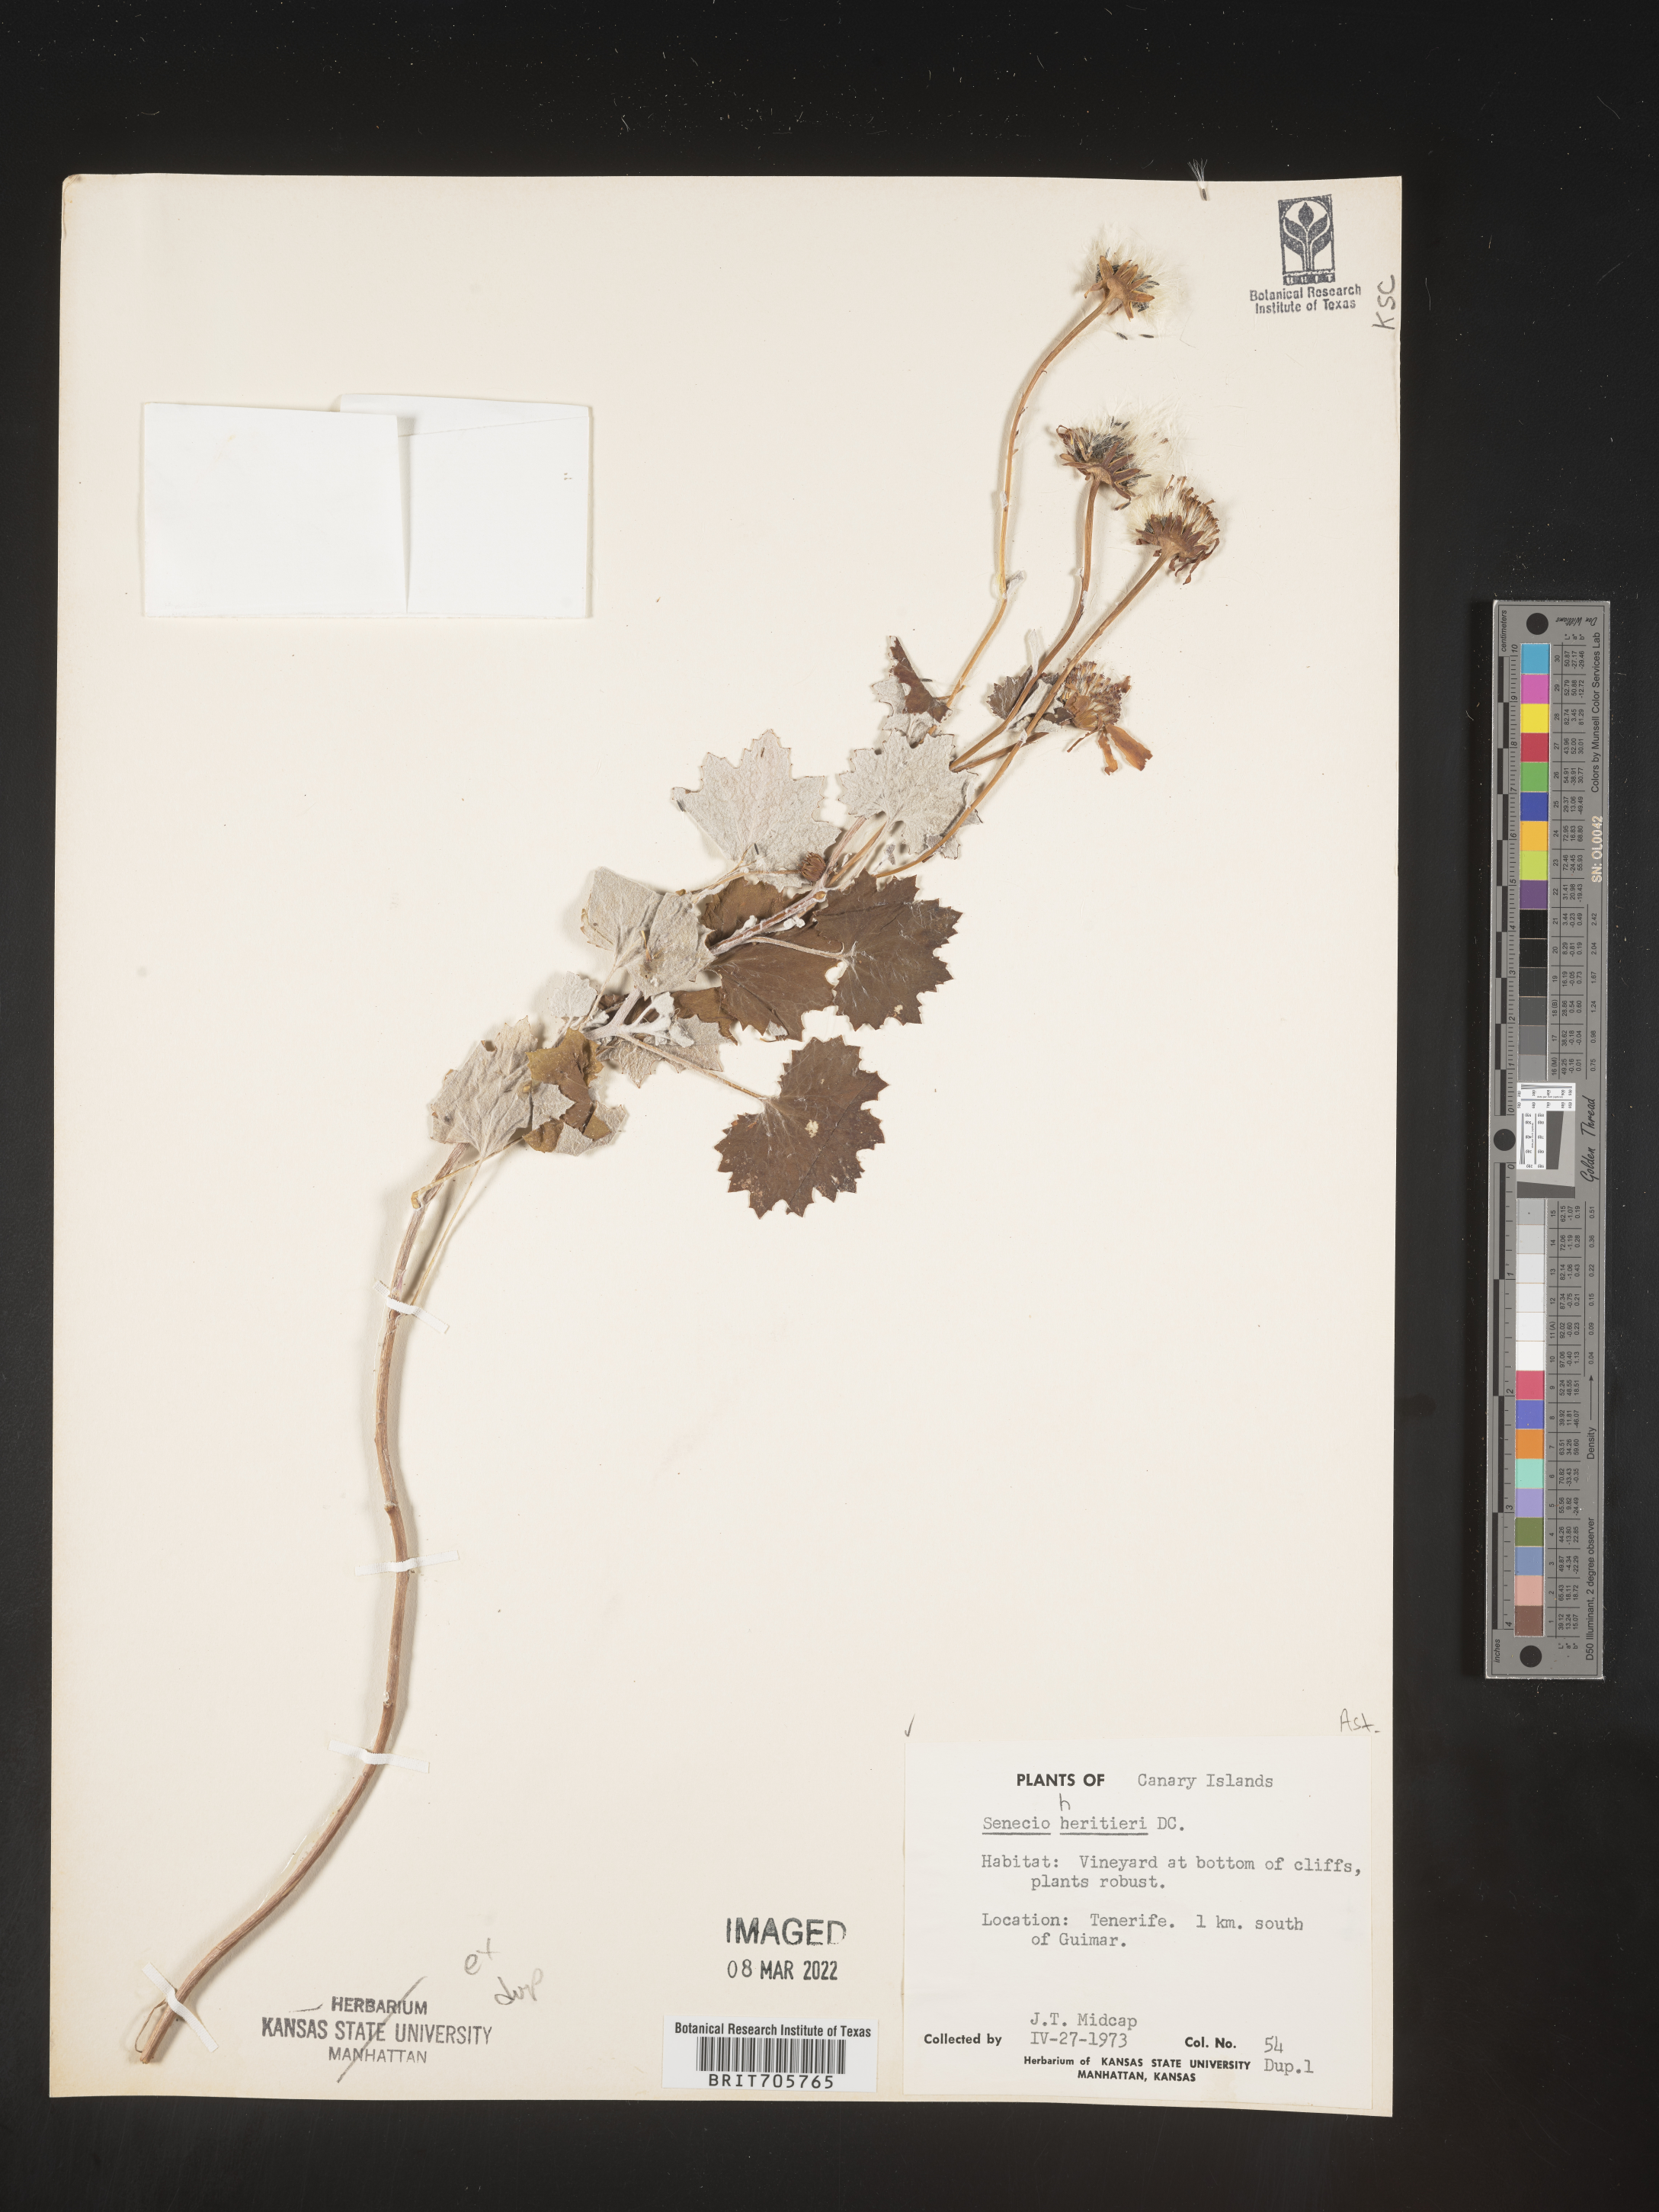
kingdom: Plantae
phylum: Tracheophyta
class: Magnoliopsida
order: Asterales
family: Asteraceae
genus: Senecio
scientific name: Senecio
